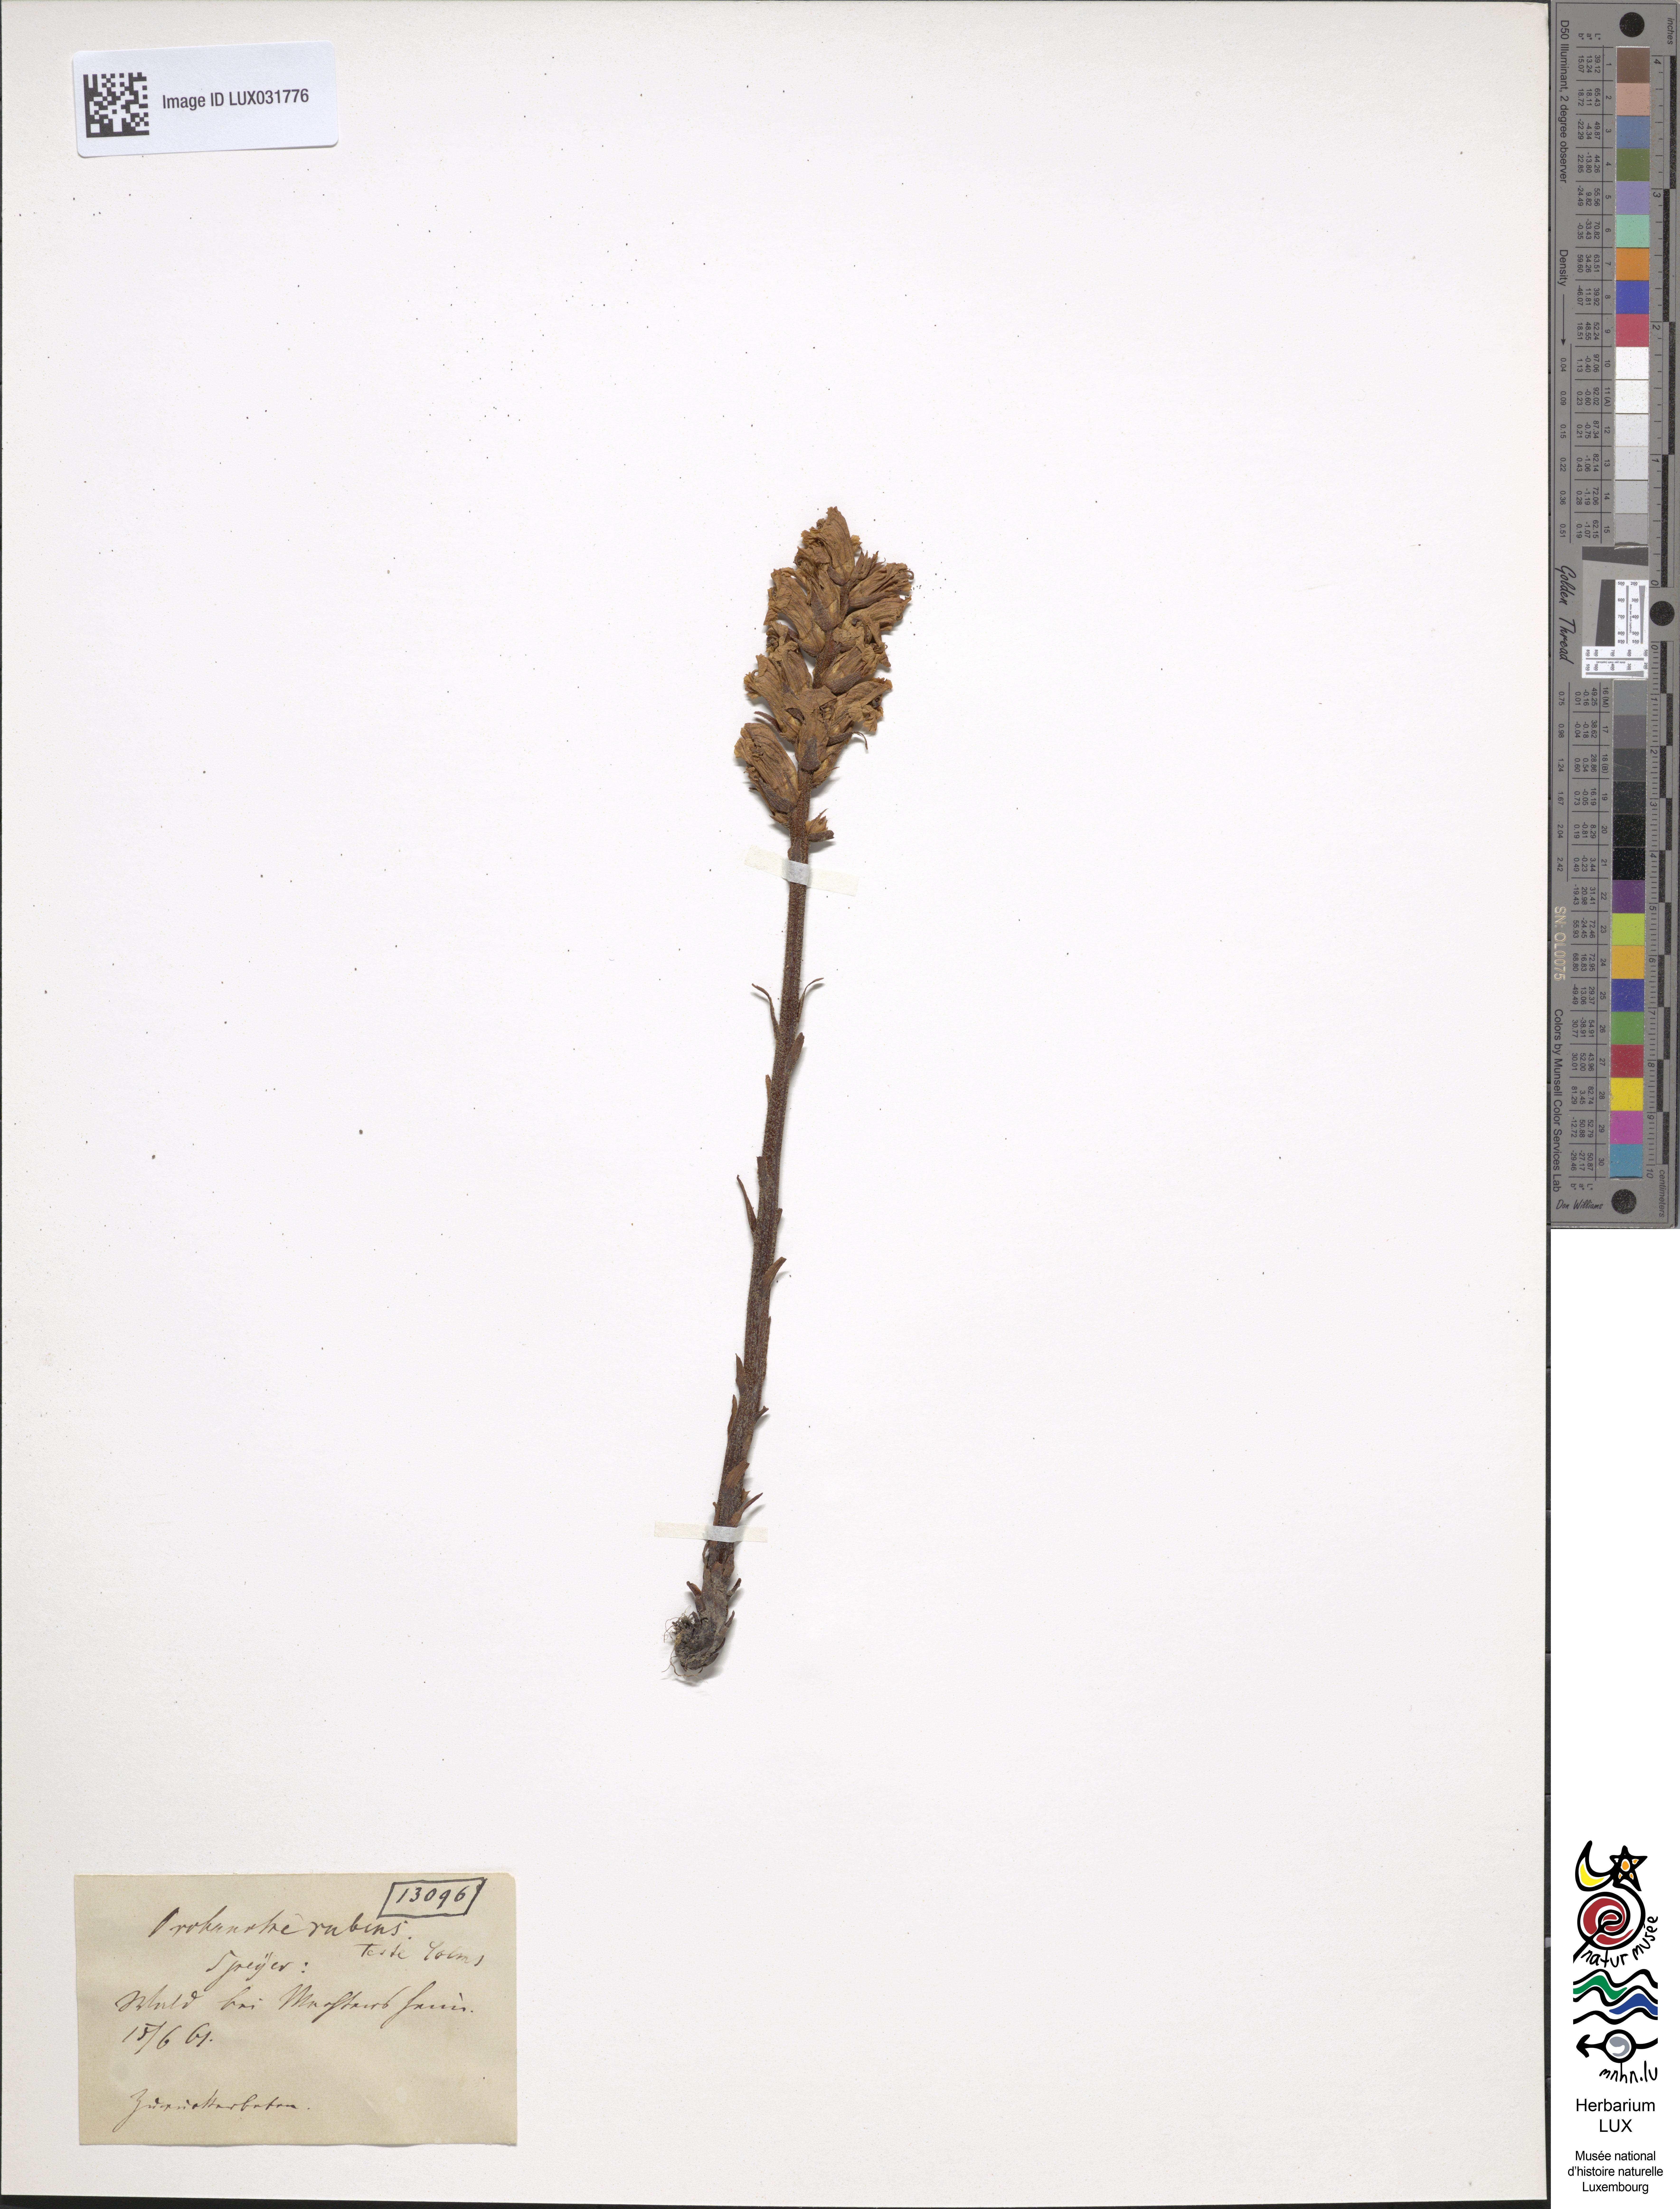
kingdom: Plantae
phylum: Tracheophyta
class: Magnoliopsida
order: Lamiales
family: Orobanchaceae
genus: Orobanche
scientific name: Orobanche lutea
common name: Yellow broomrape
